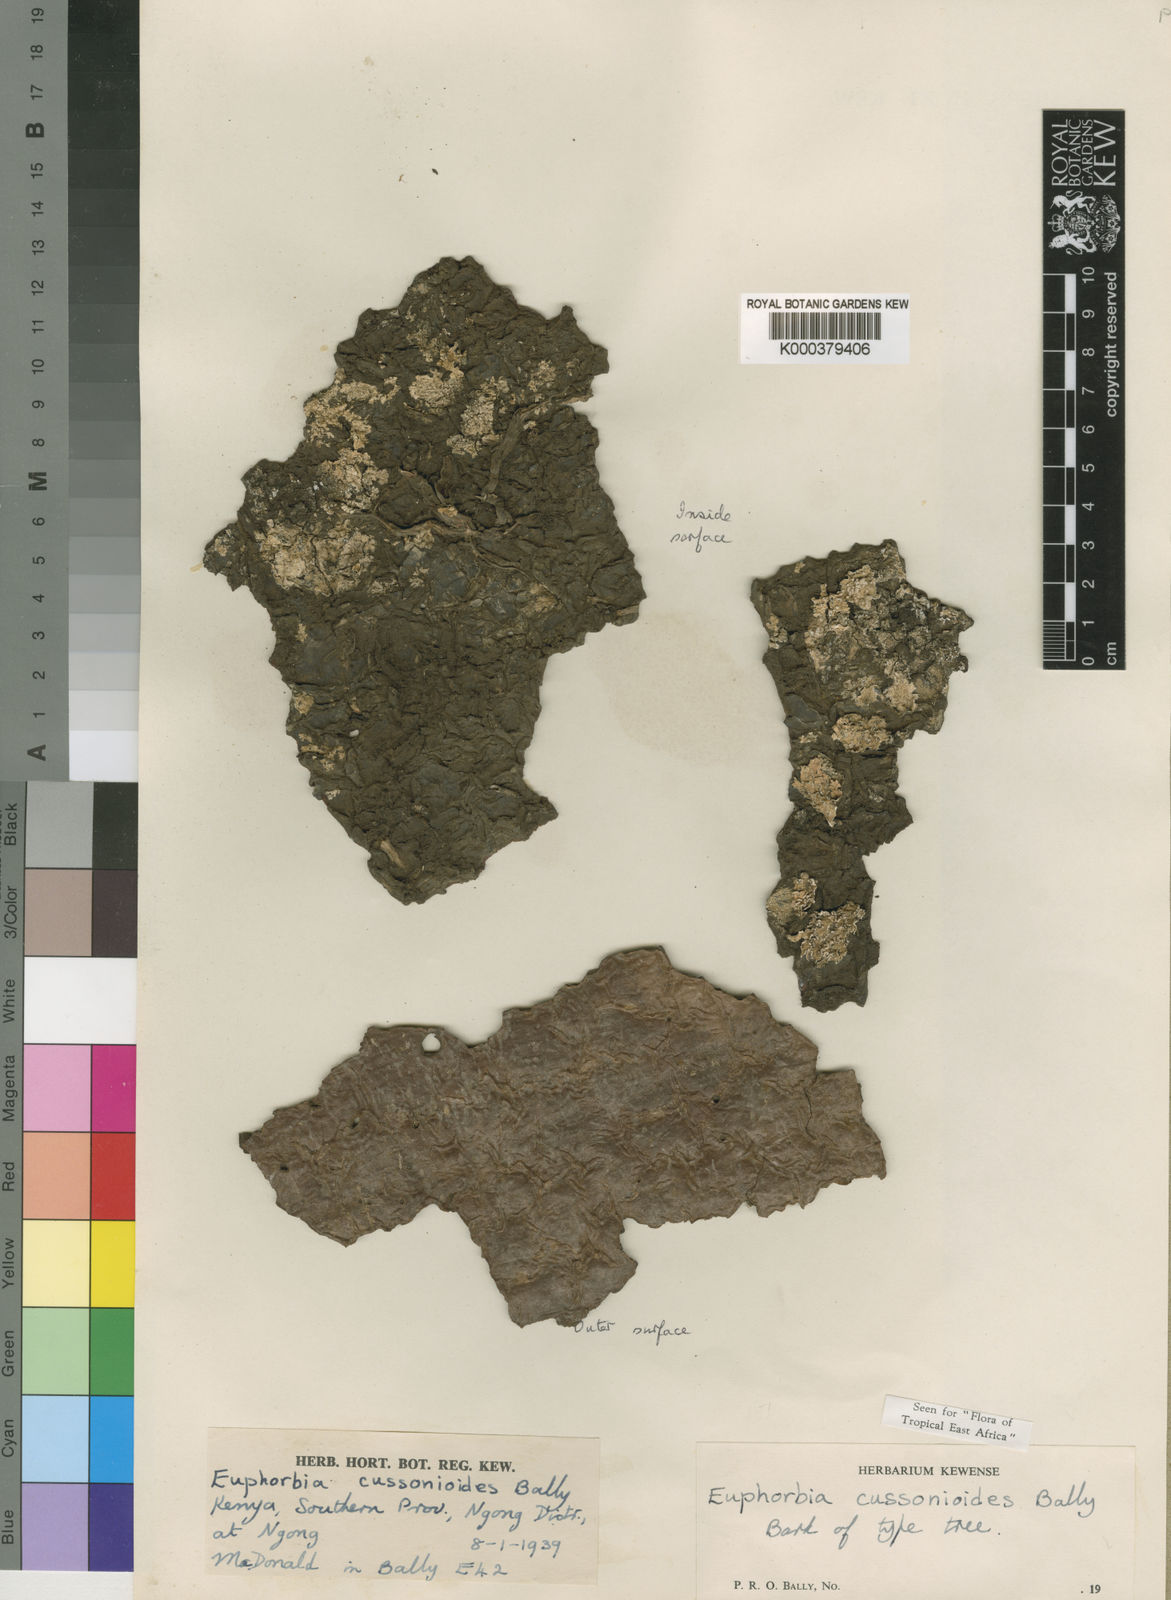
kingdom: Plantae
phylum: Tracheophyta
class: Magnoliopsida
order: Malpighiales
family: Euphorbiaceae
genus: Euphorbia
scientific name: Euphorbia cussonioides
